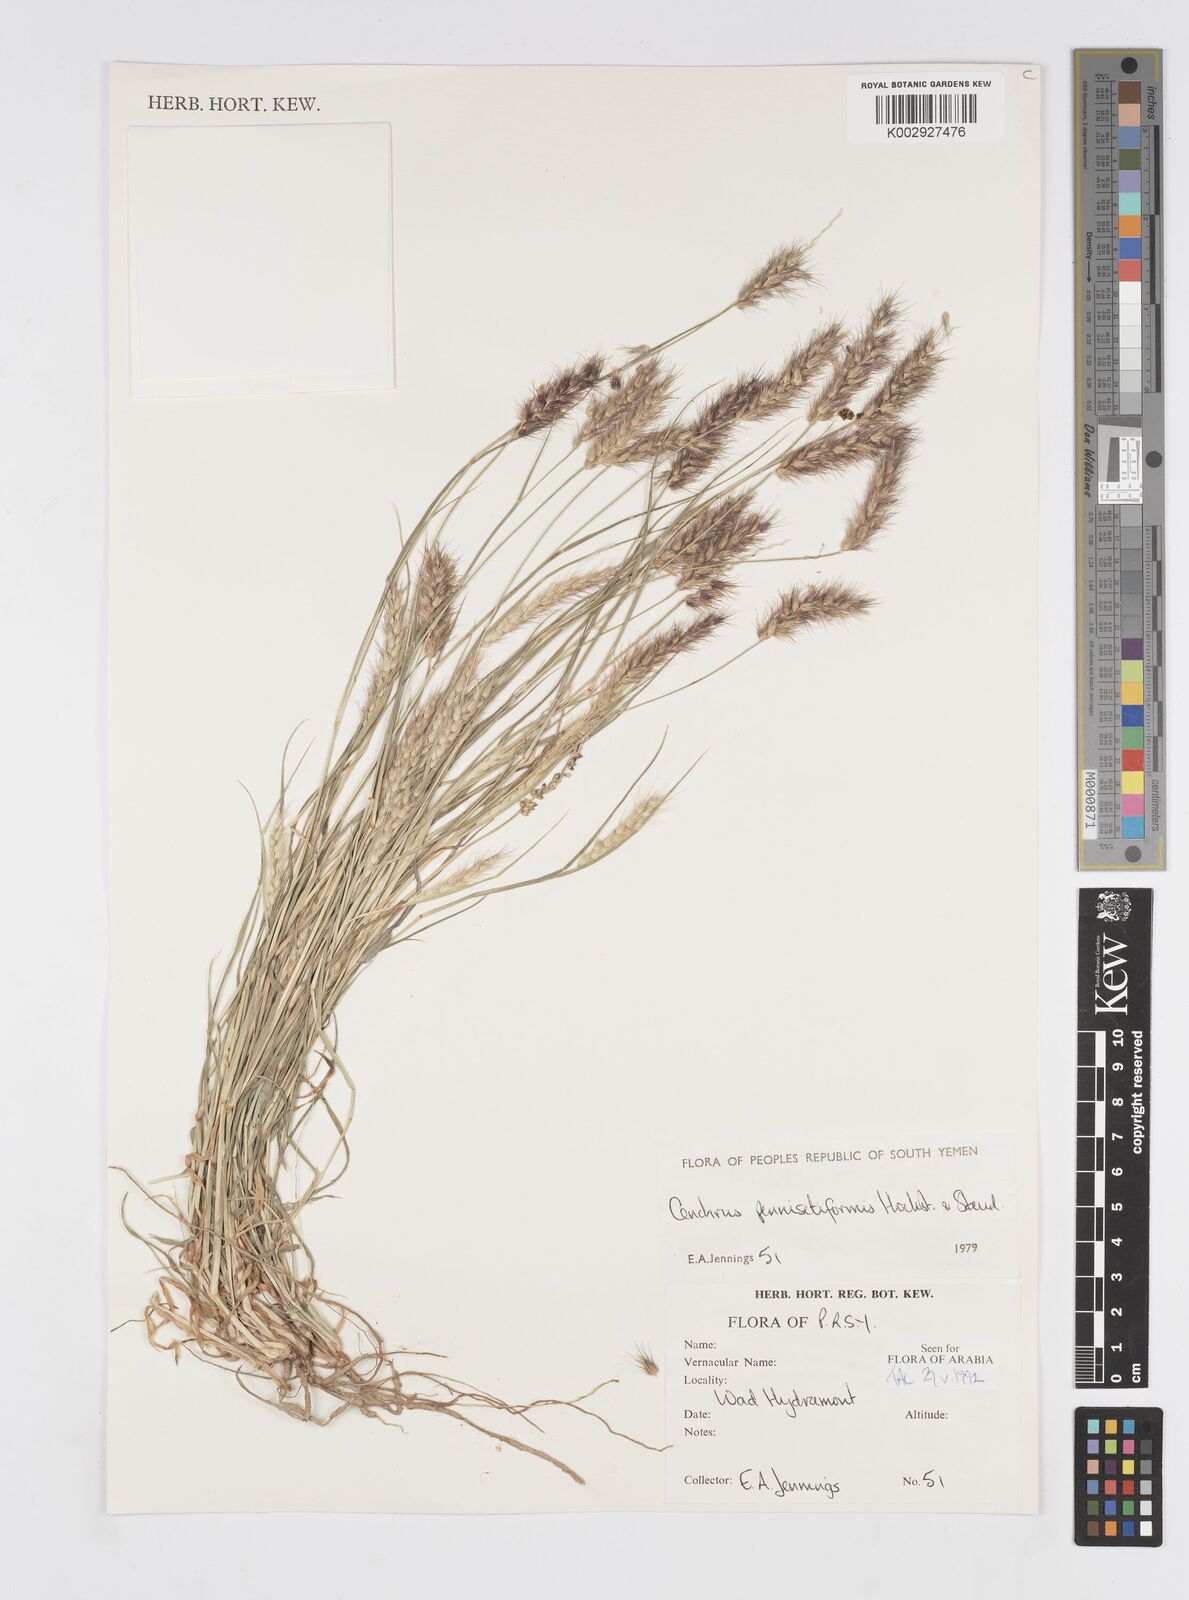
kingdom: Plantae
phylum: Tracheophyta
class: Liliopsida
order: Poales
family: Poaceae
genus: Cenchrus
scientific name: Cenchrus pennisetiformis
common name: Cloncurry
